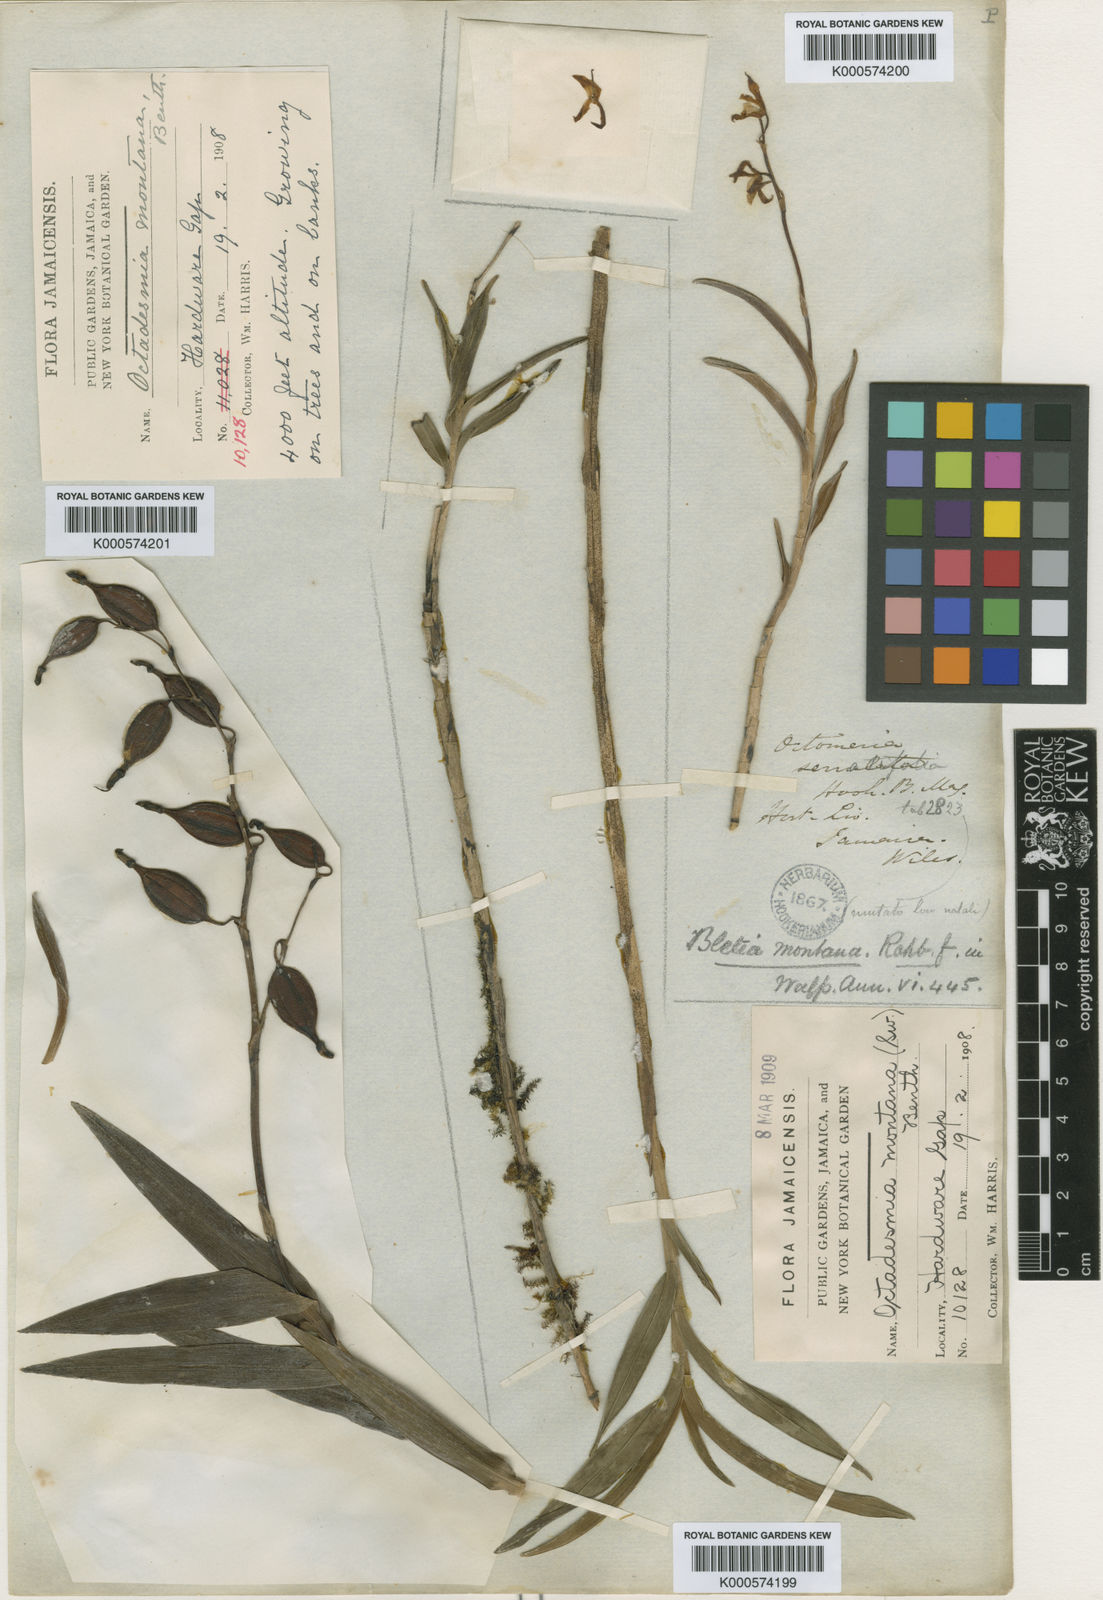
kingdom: Plantae
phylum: Tracheophyta
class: Liliopsida
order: Asparagales
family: Orchidaceae
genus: Dilomilis
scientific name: Dilomilis montana
